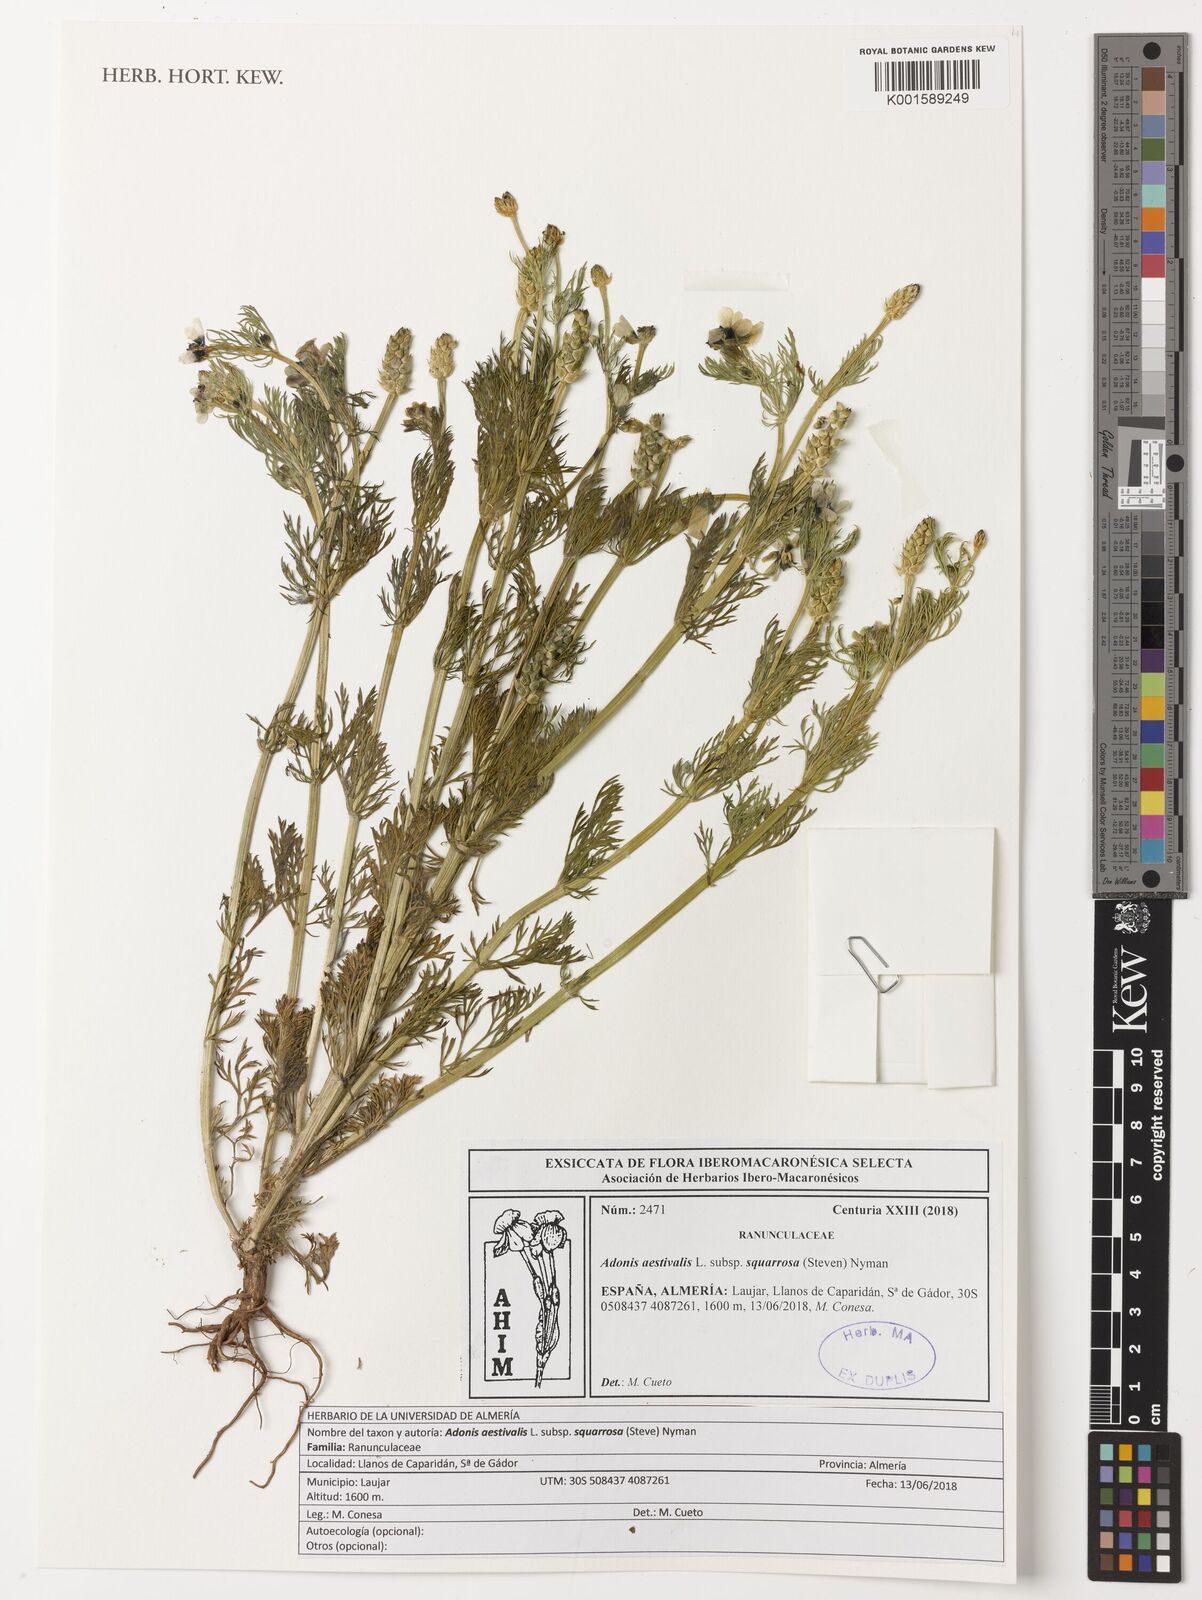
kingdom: Plantae
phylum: Tracheophyta
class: Magnoliopsida
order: Ranunculales
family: Ranunculaceae
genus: Adonis
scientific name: Adonis aestivalis
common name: Summer pheasant's-eye
